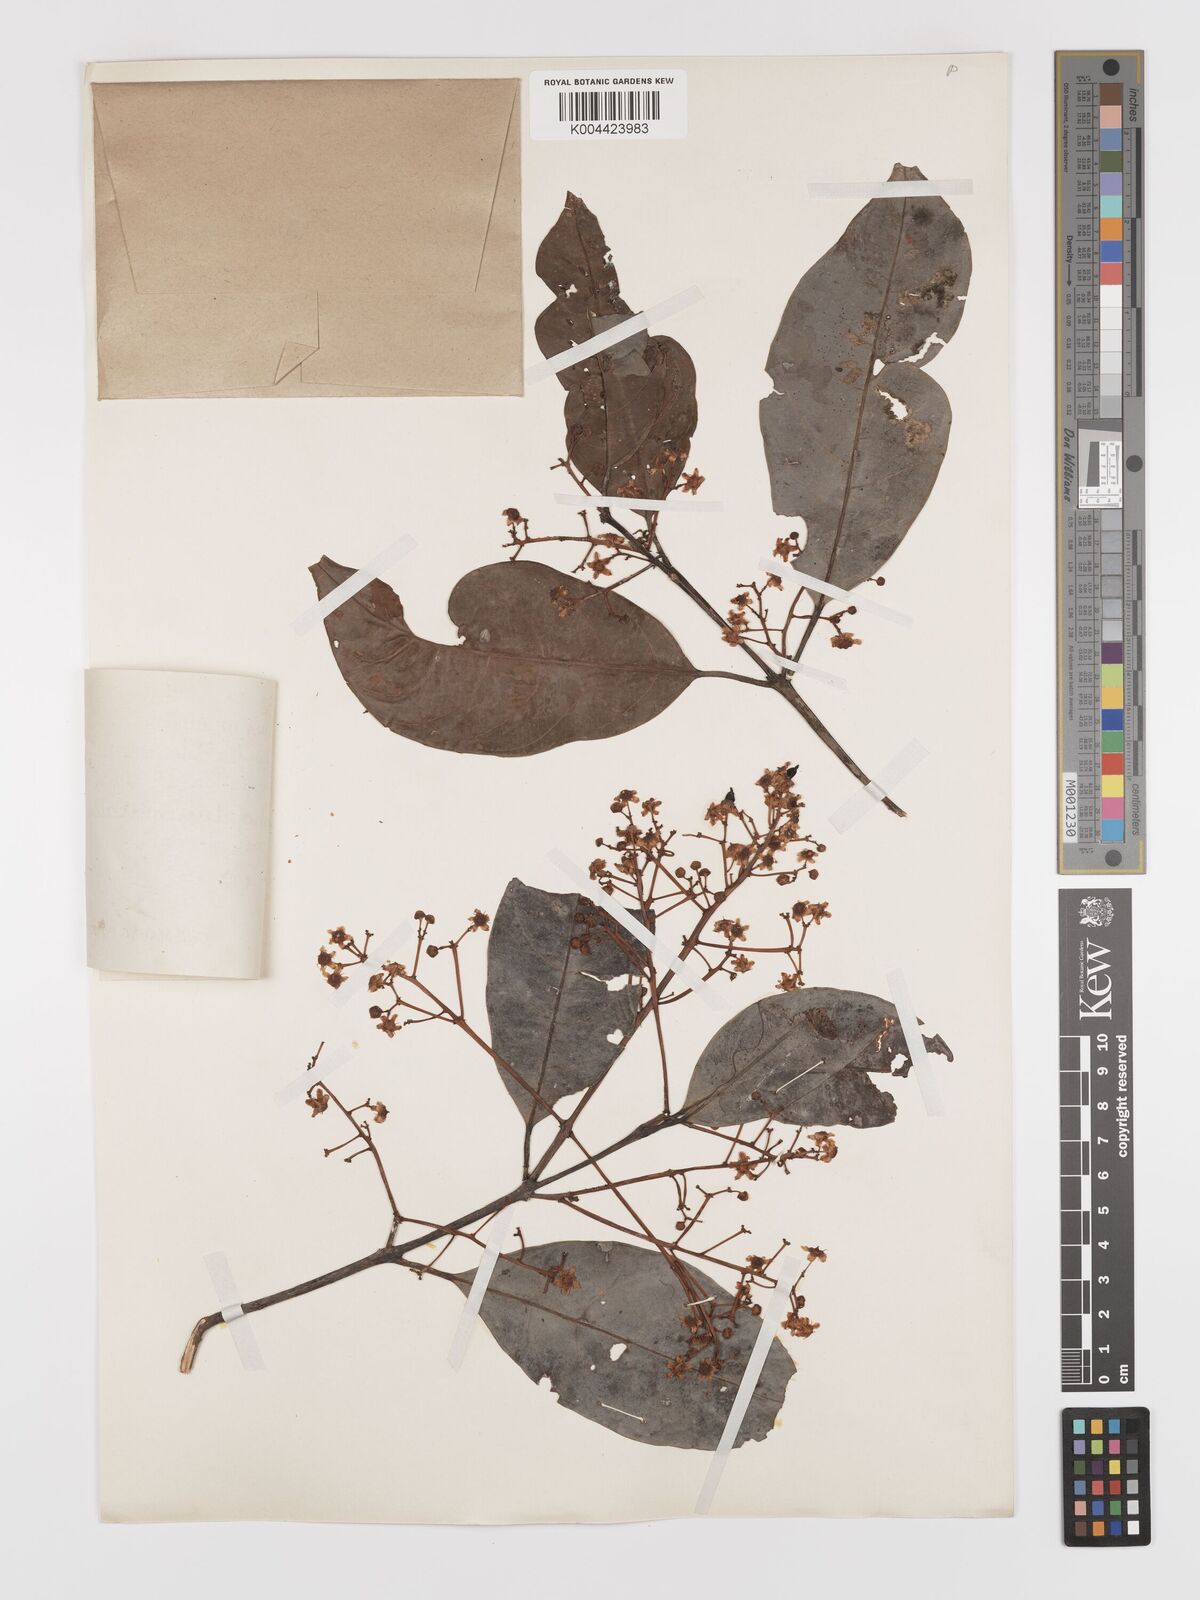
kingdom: Plantae
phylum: Tracheophyta
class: Magnoliopsida
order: Celastrales
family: Celastraceae
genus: Lophopetalum
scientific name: Lophopetalum wallichii
